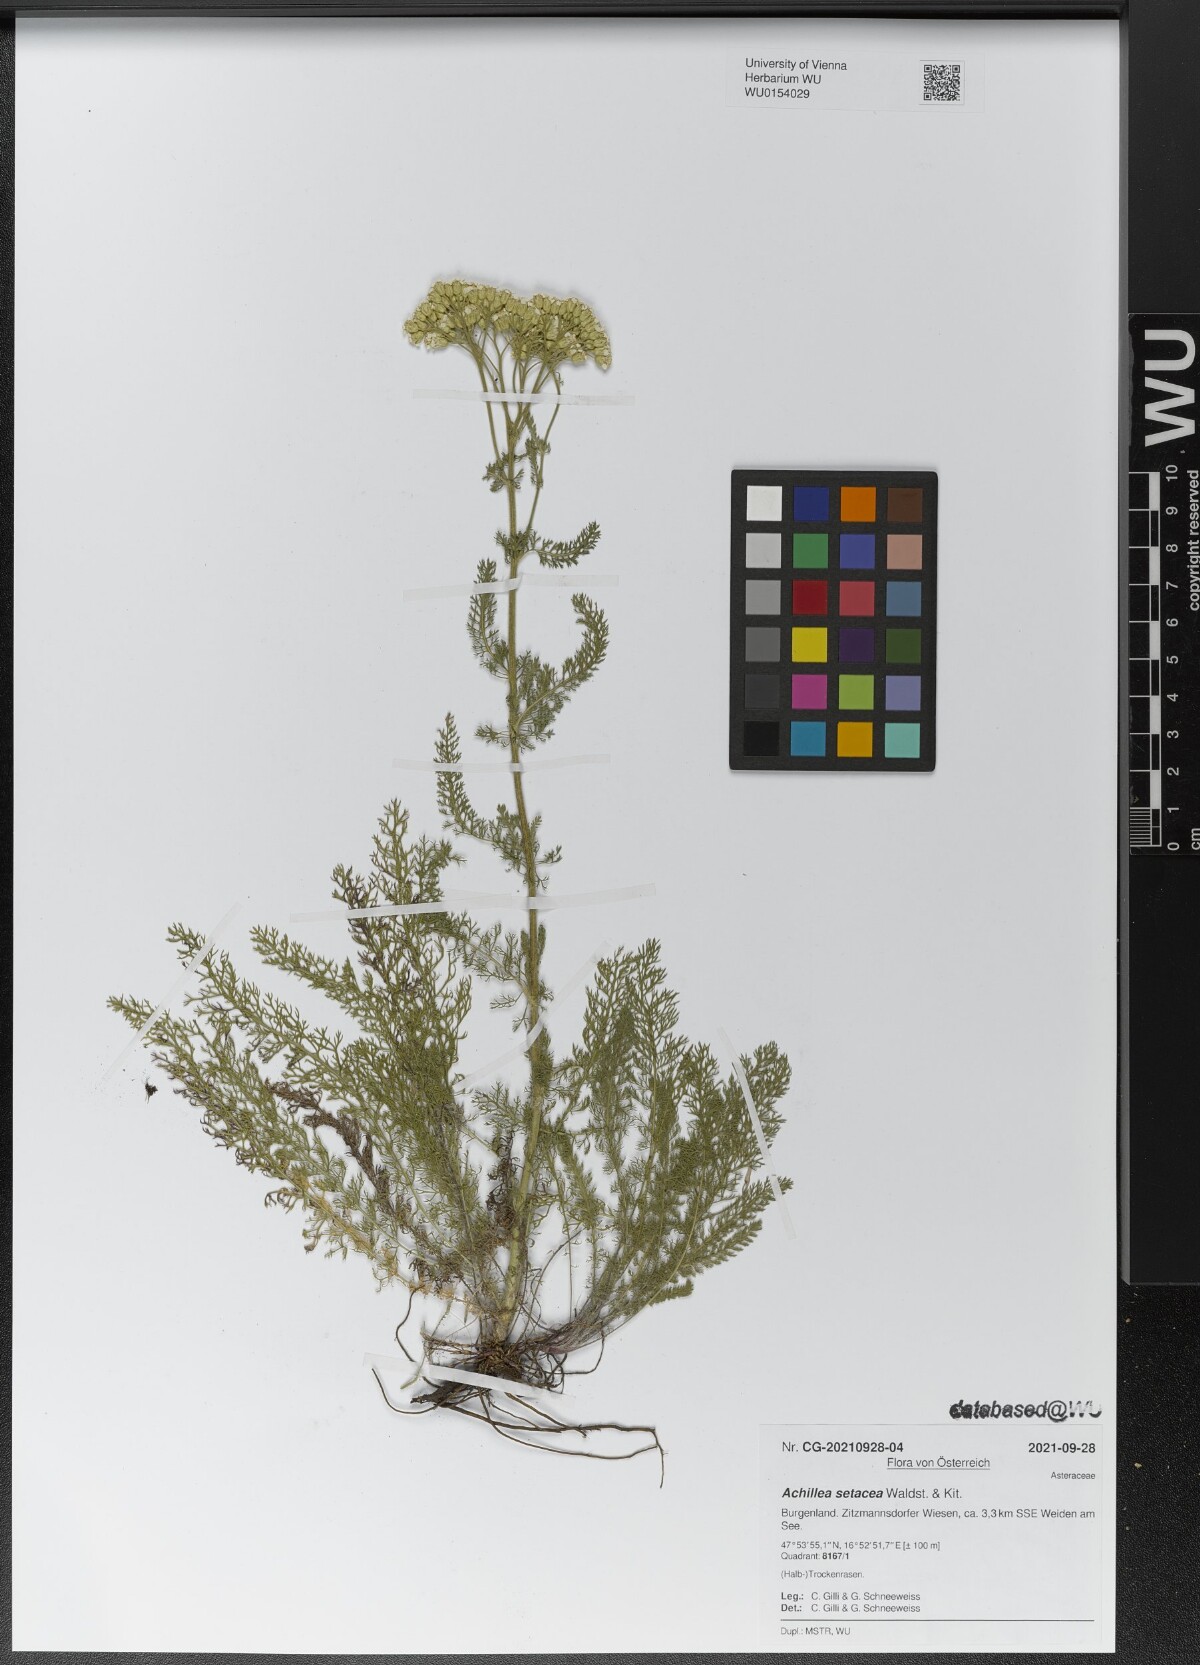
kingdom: Plantae
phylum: Tracheophyta
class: Magnoliopsida
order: Asterales
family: Asteraceae
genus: Achillea
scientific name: Achillea setacea
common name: Bristly yarrow
